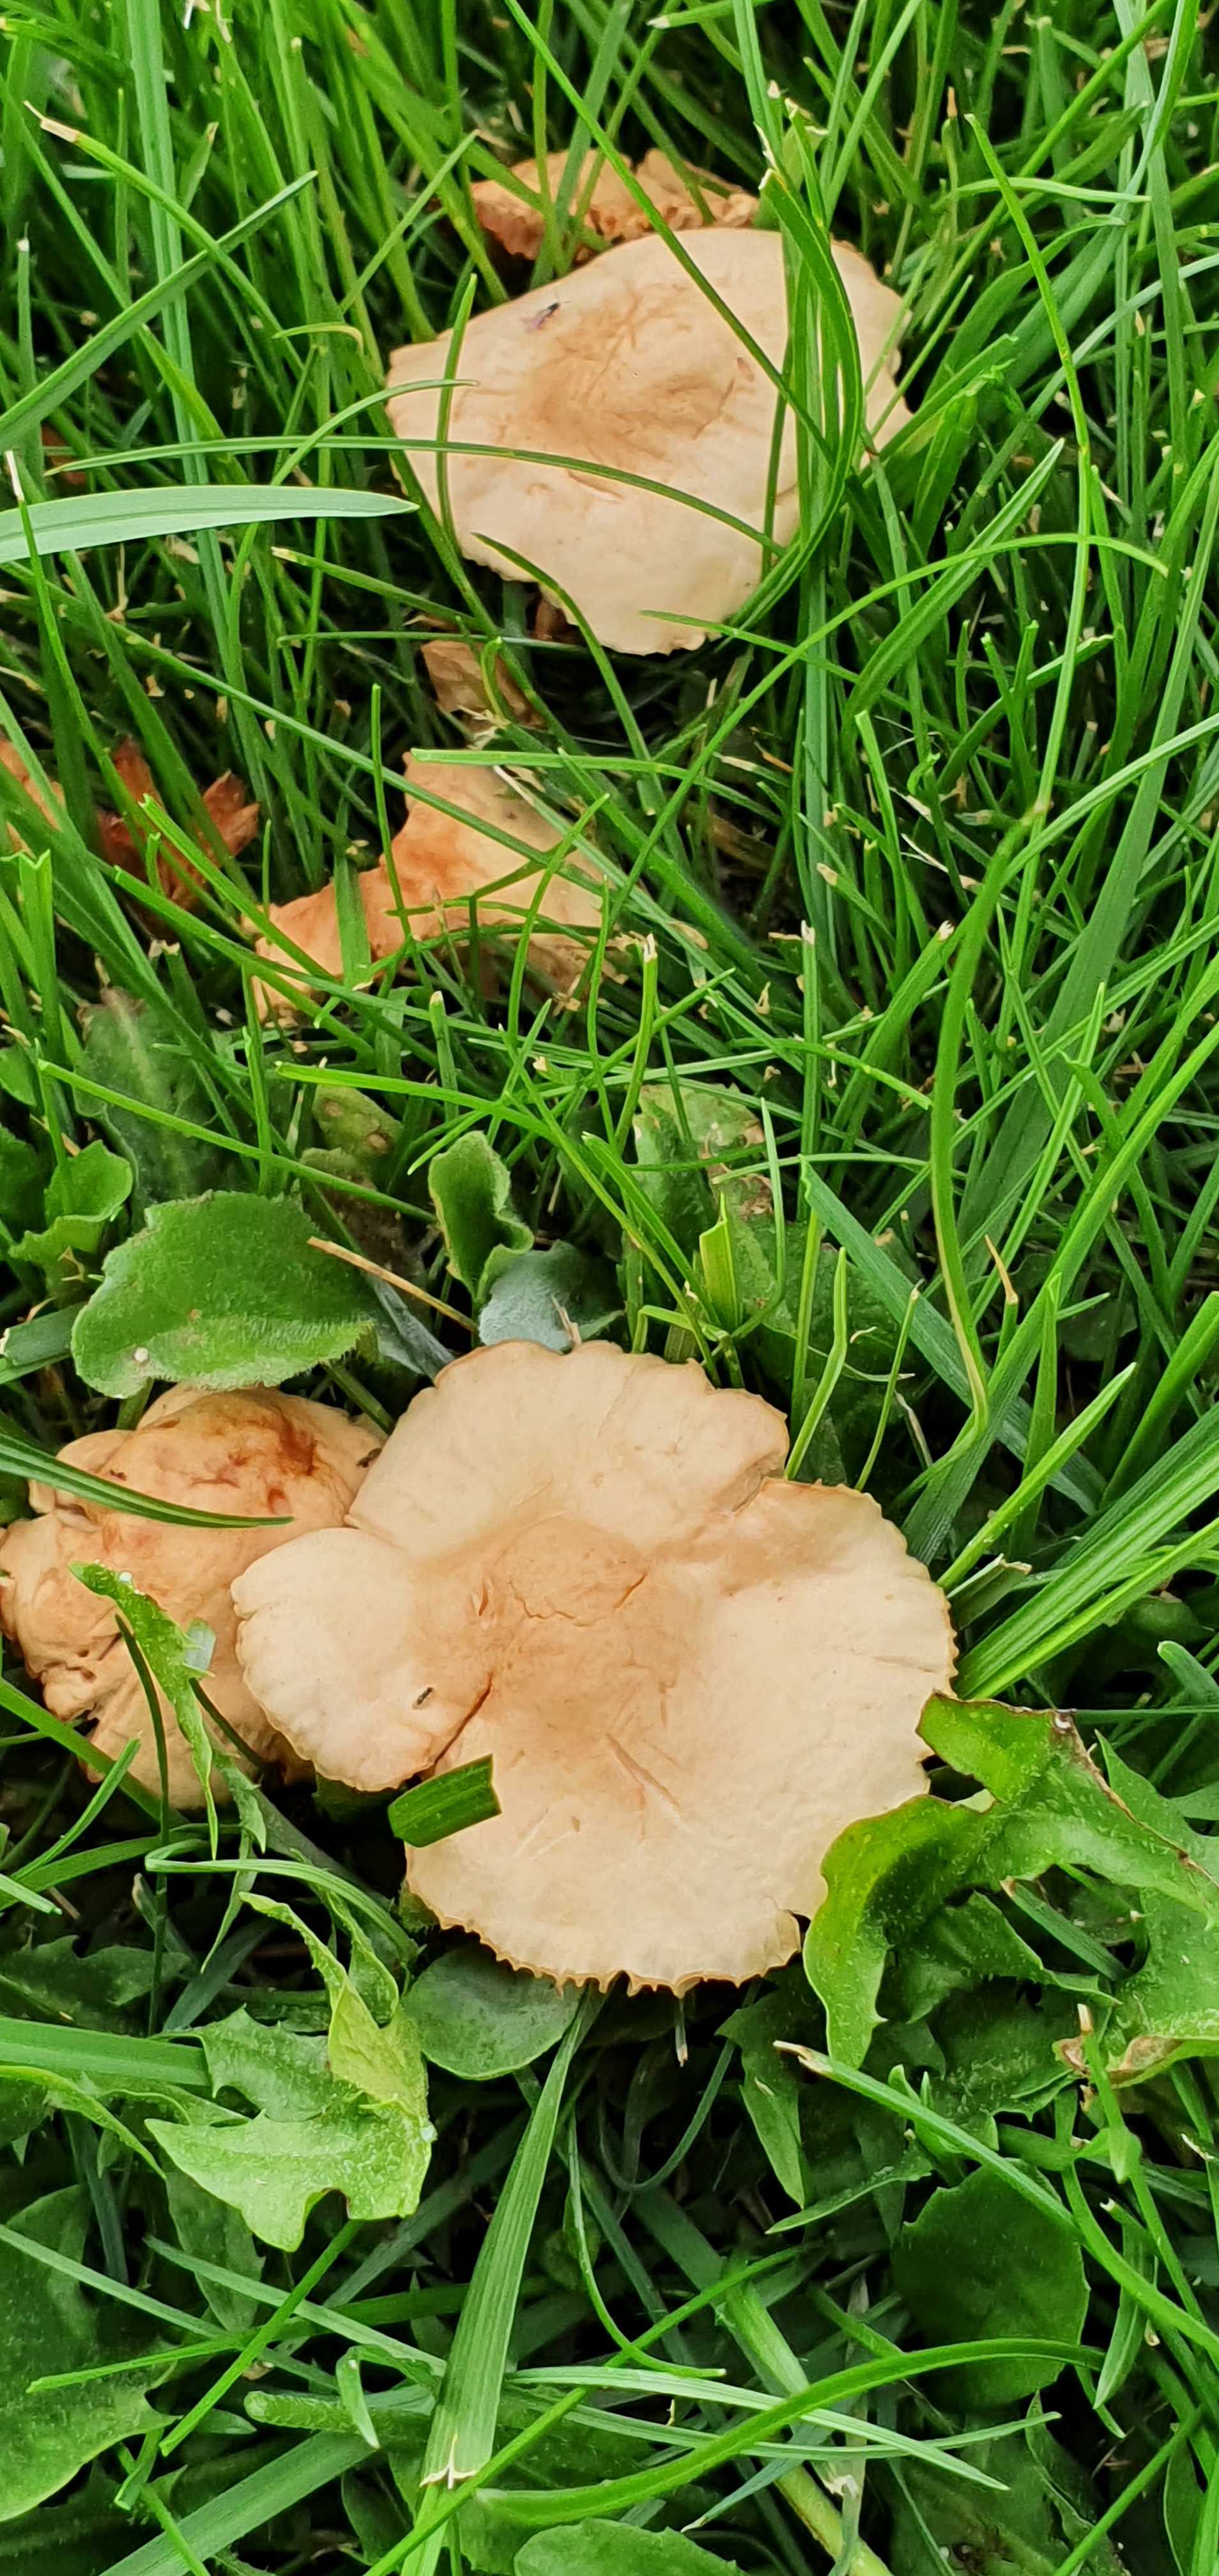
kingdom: Fungi
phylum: Basidiomycota
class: Agaricomycetes
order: Agaricales
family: Marasmiaceae
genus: Marasmius
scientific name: Marasmius oreades
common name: elledans-bruskhat
